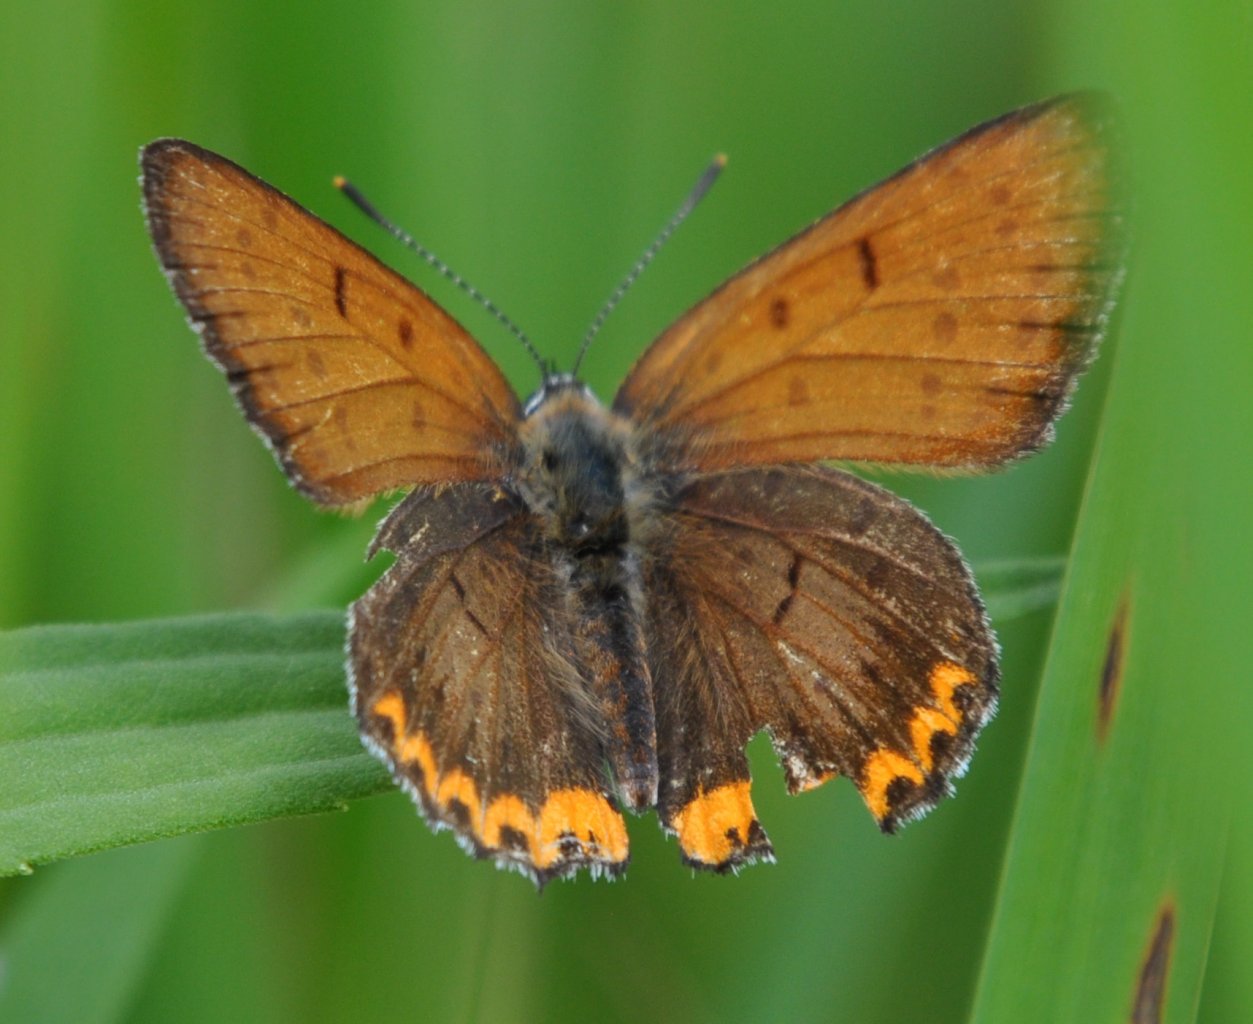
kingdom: Animalia
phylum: Arthropoda
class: Insecta
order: Lepidoptera
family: Sesiidae
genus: Sesia
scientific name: Sesia Lycaena hyllus
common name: Bronze Copper
